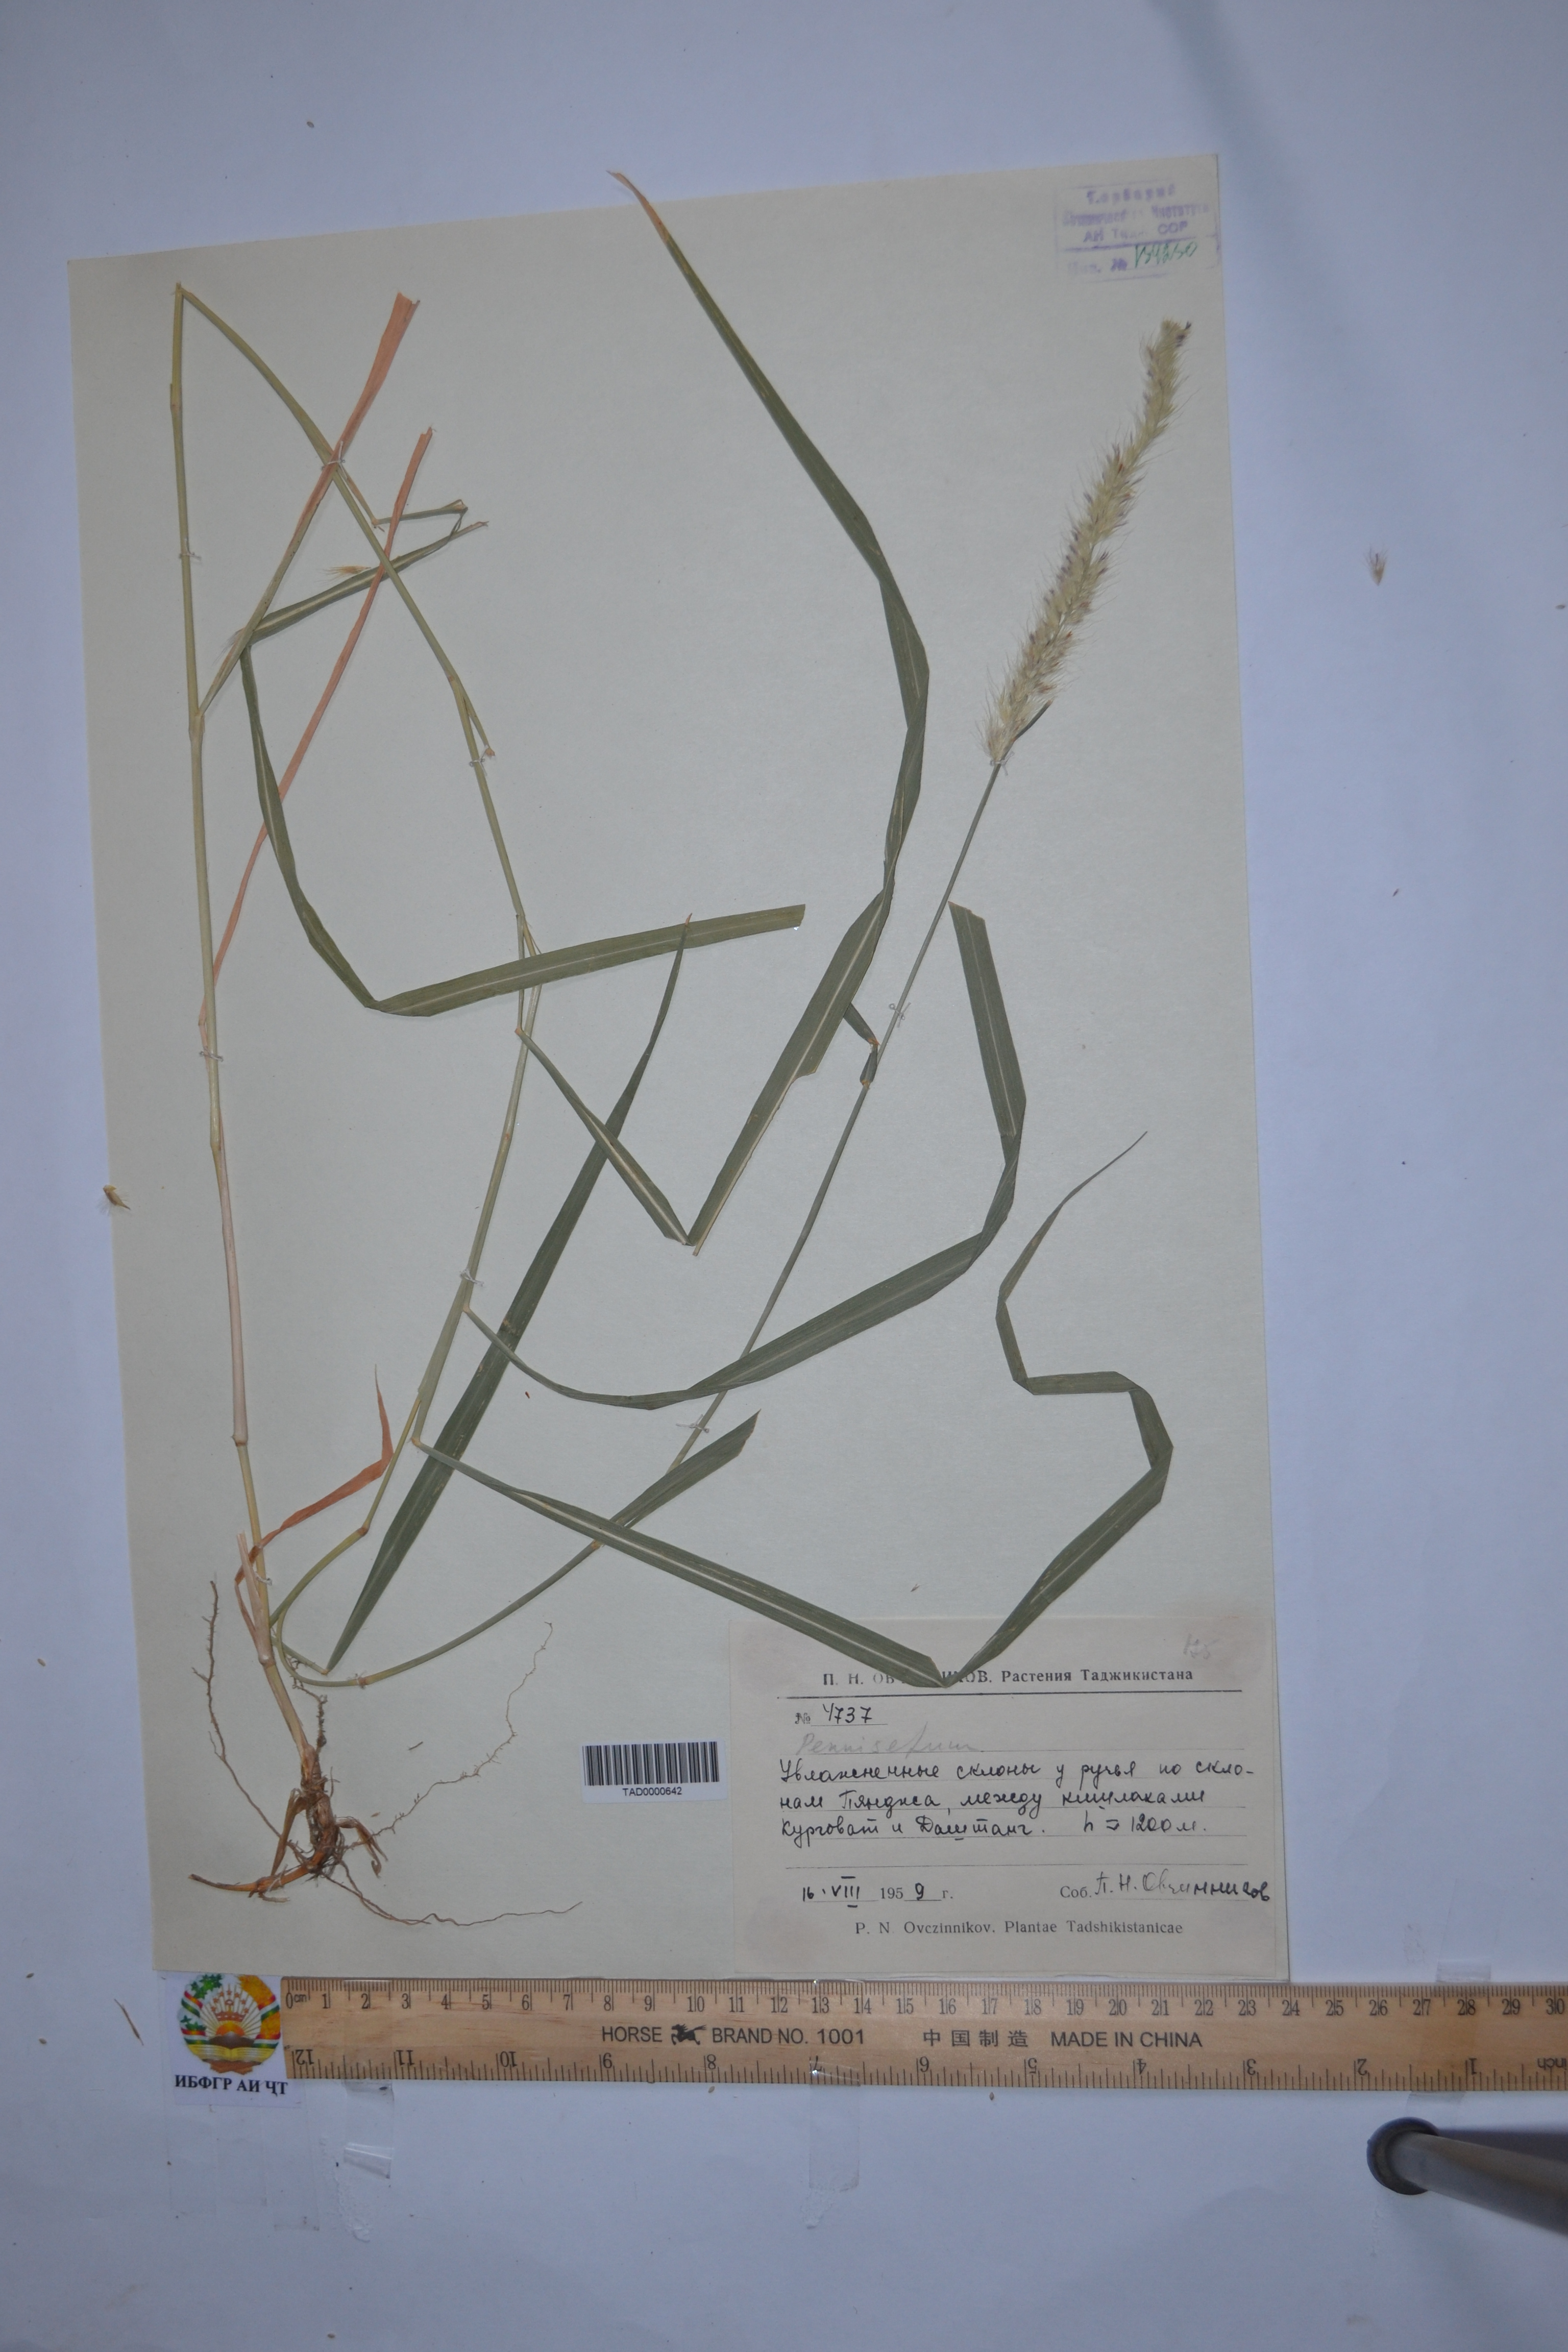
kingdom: Plantae
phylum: Tracheophyta
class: Liliopsida
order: Poales
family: Poaceae
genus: Cenchrus
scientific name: Cenchrus orientalis
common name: Oriental fountain grass
